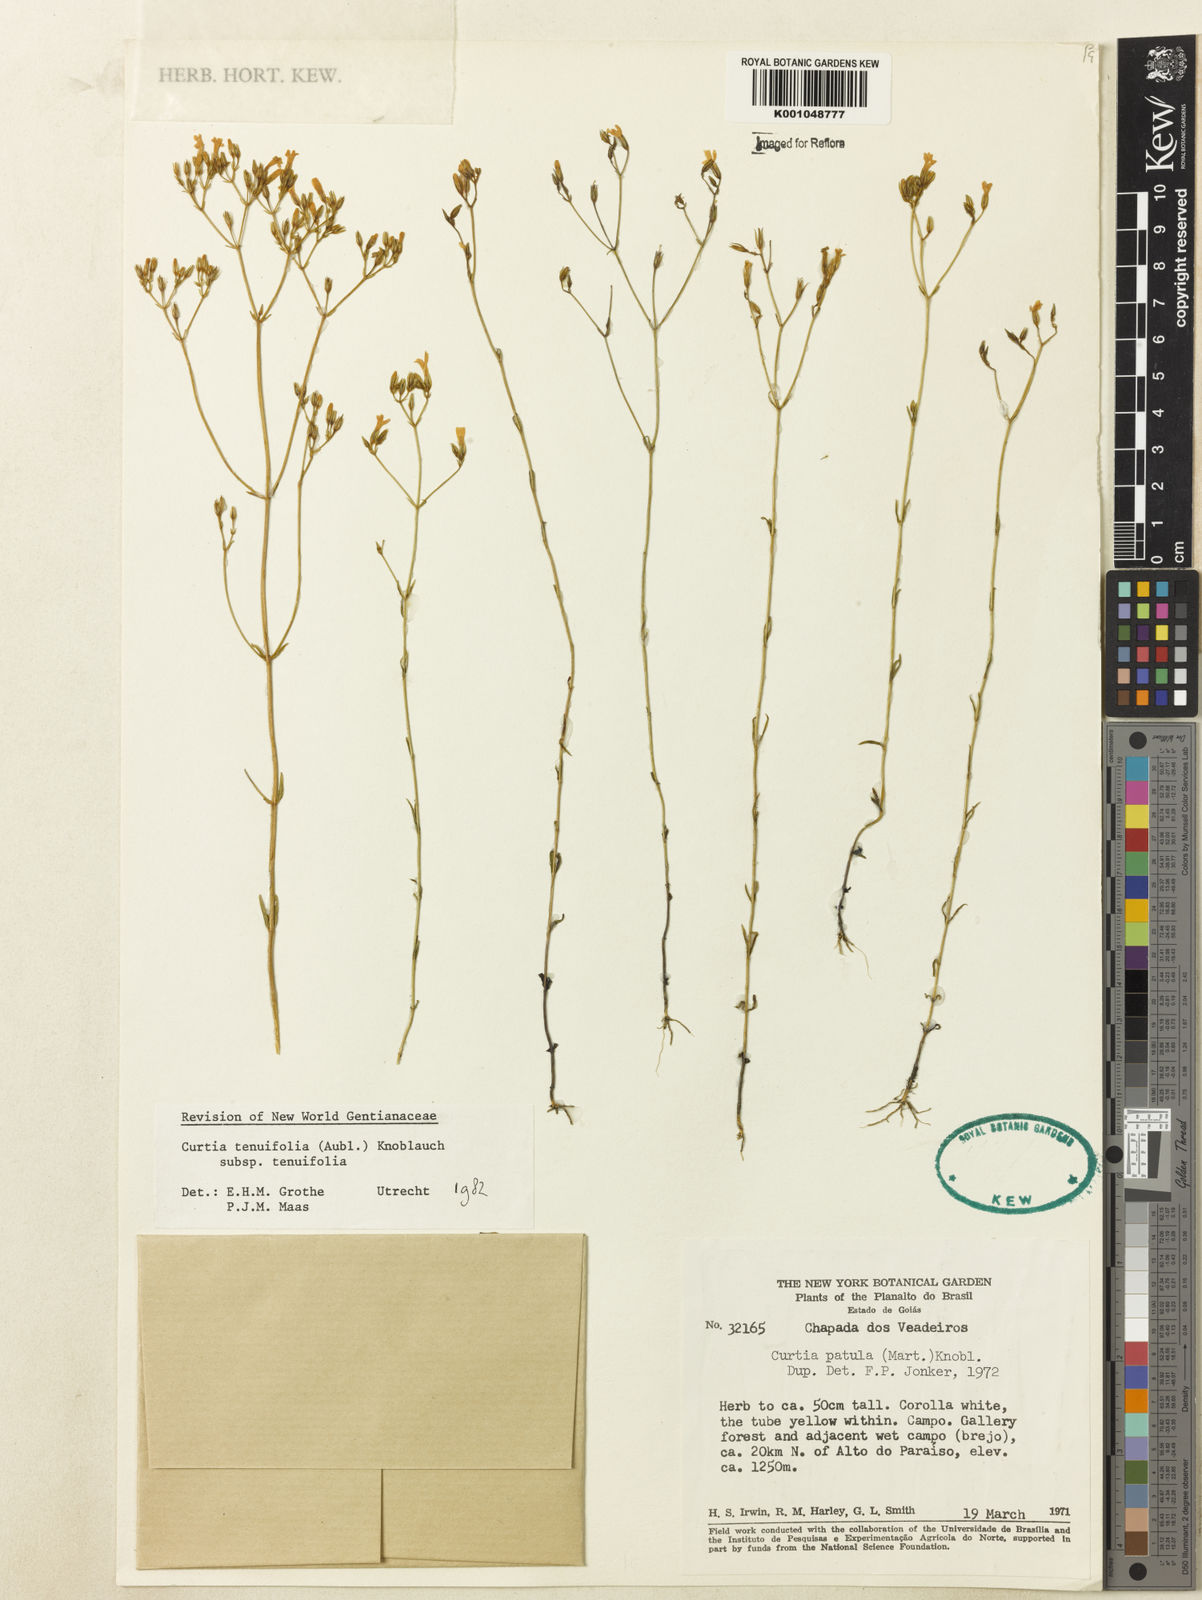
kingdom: Plantae
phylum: Tracheophyta
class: Magnoliopsida
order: Gentianales
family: Gentianaceae
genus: Curtia
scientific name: Curtia tenuifolia
